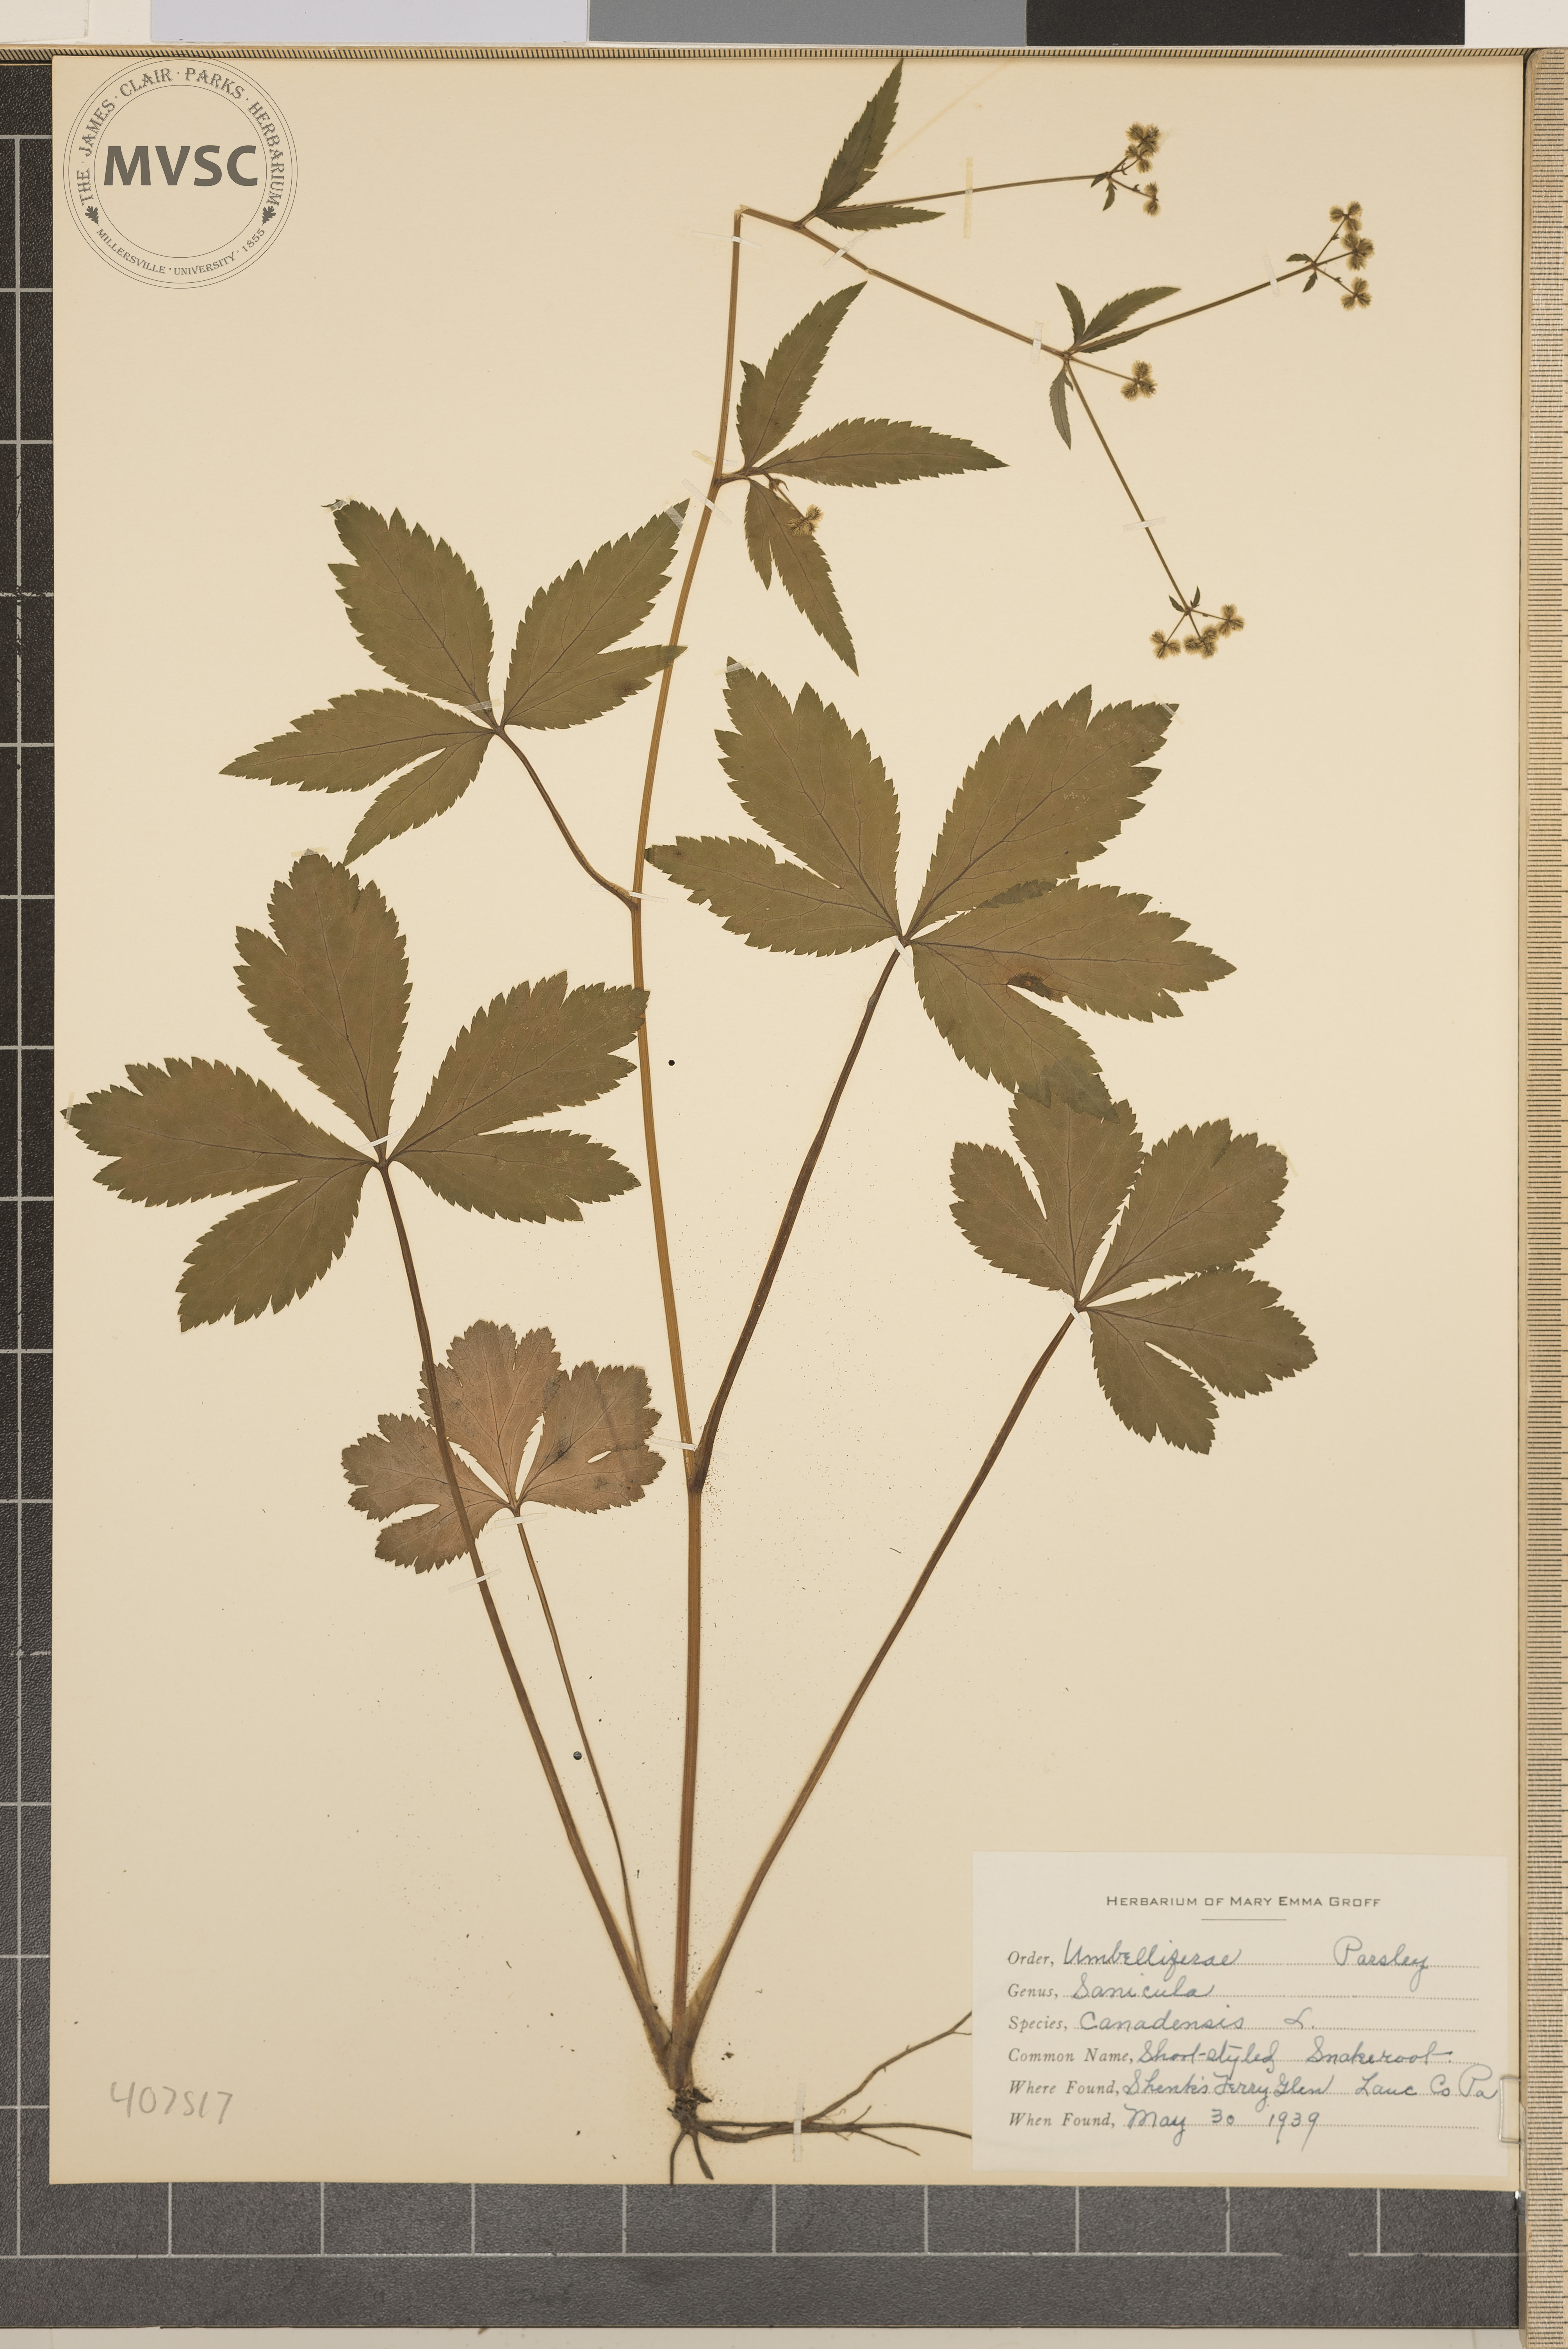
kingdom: Plantae
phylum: Tracheophyta
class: Magnoliopsida
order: Apiales
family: Apiaceae
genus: Sanicula
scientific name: Sanicula canadensis
